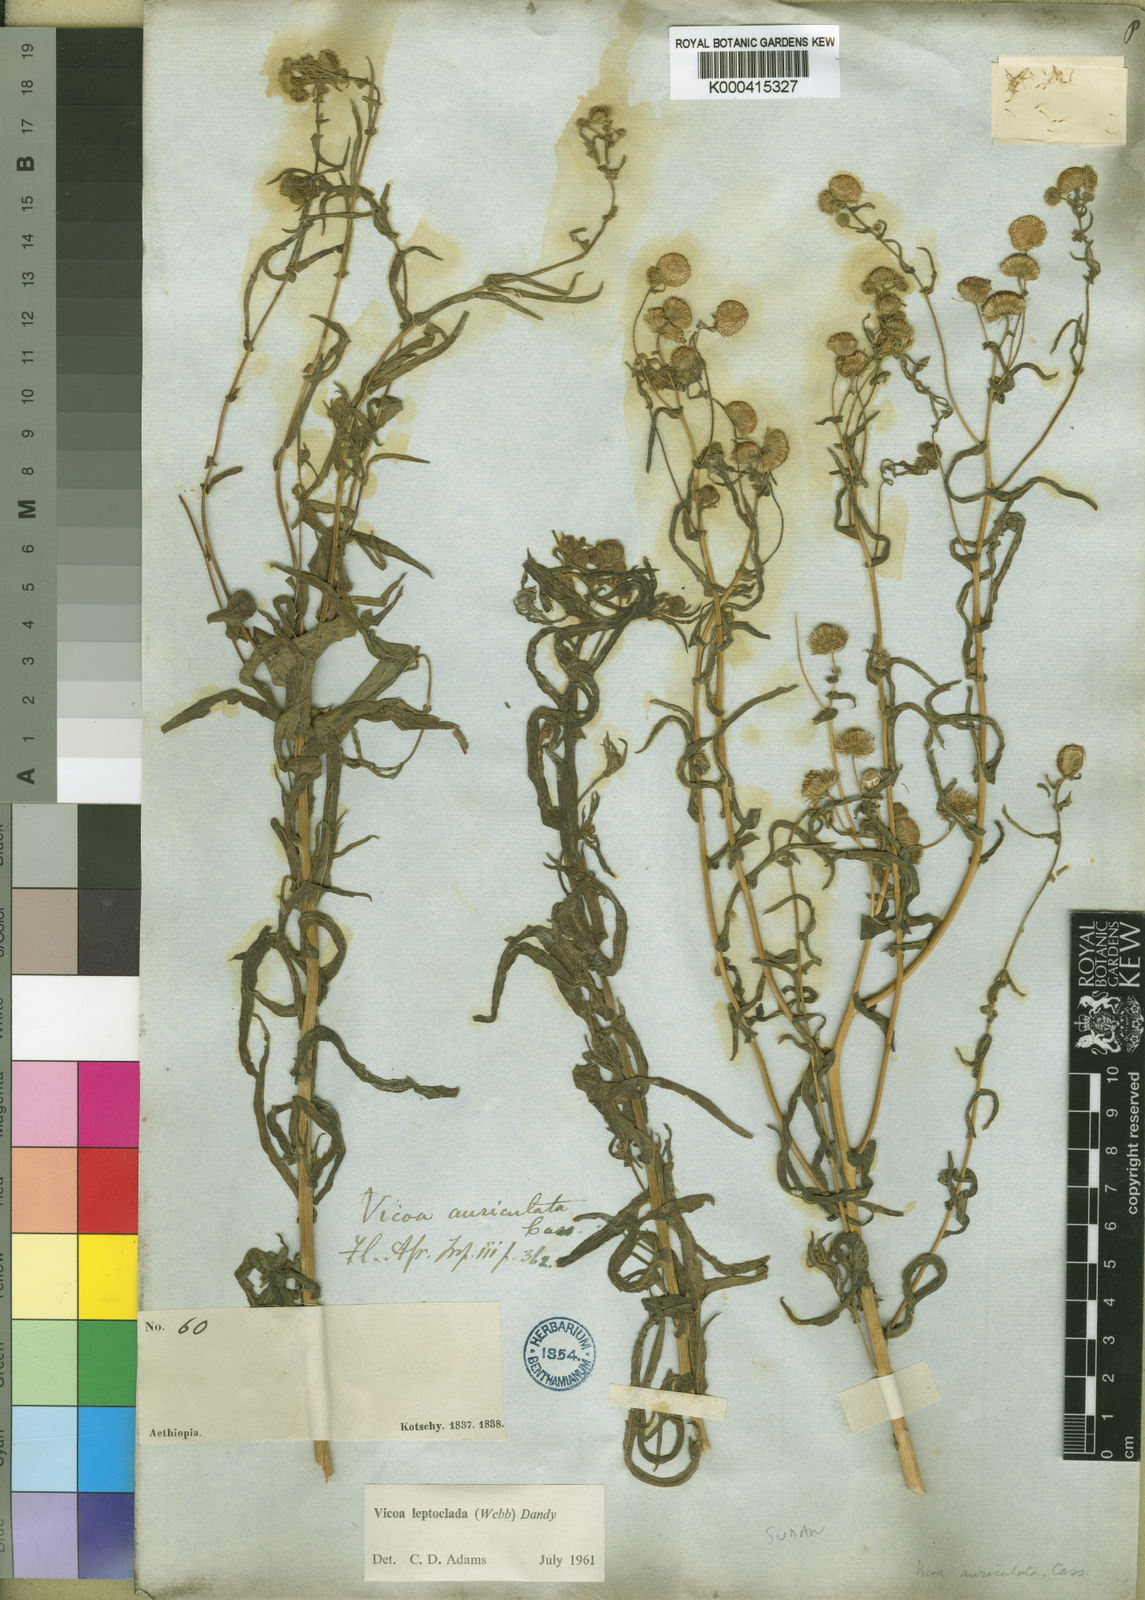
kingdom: Plantae
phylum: Tracheophyta
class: Magnoliopsida
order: Asterales
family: Asteraceae
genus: Vicoa
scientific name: Vicoa indica
